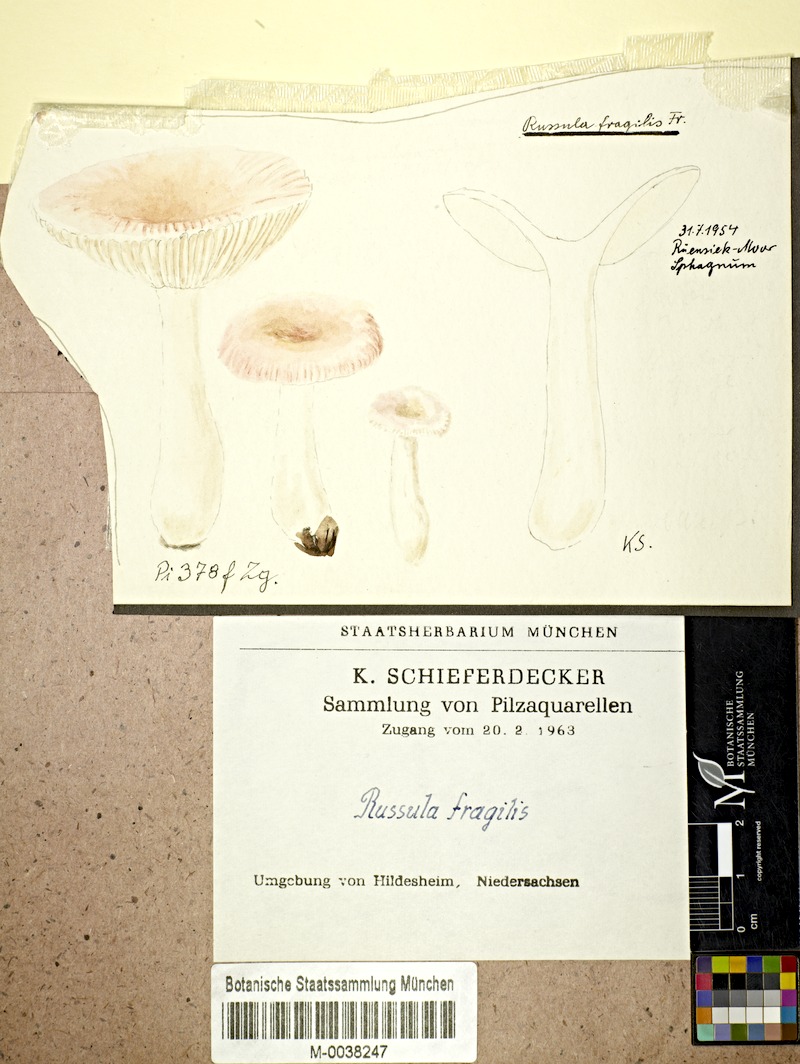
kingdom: Fungi
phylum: Basidiomycota
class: Agaricomycetes
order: Russulales
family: Russulaceae
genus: Russula
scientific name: Russula fragilis
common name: Fragile brittlegill
